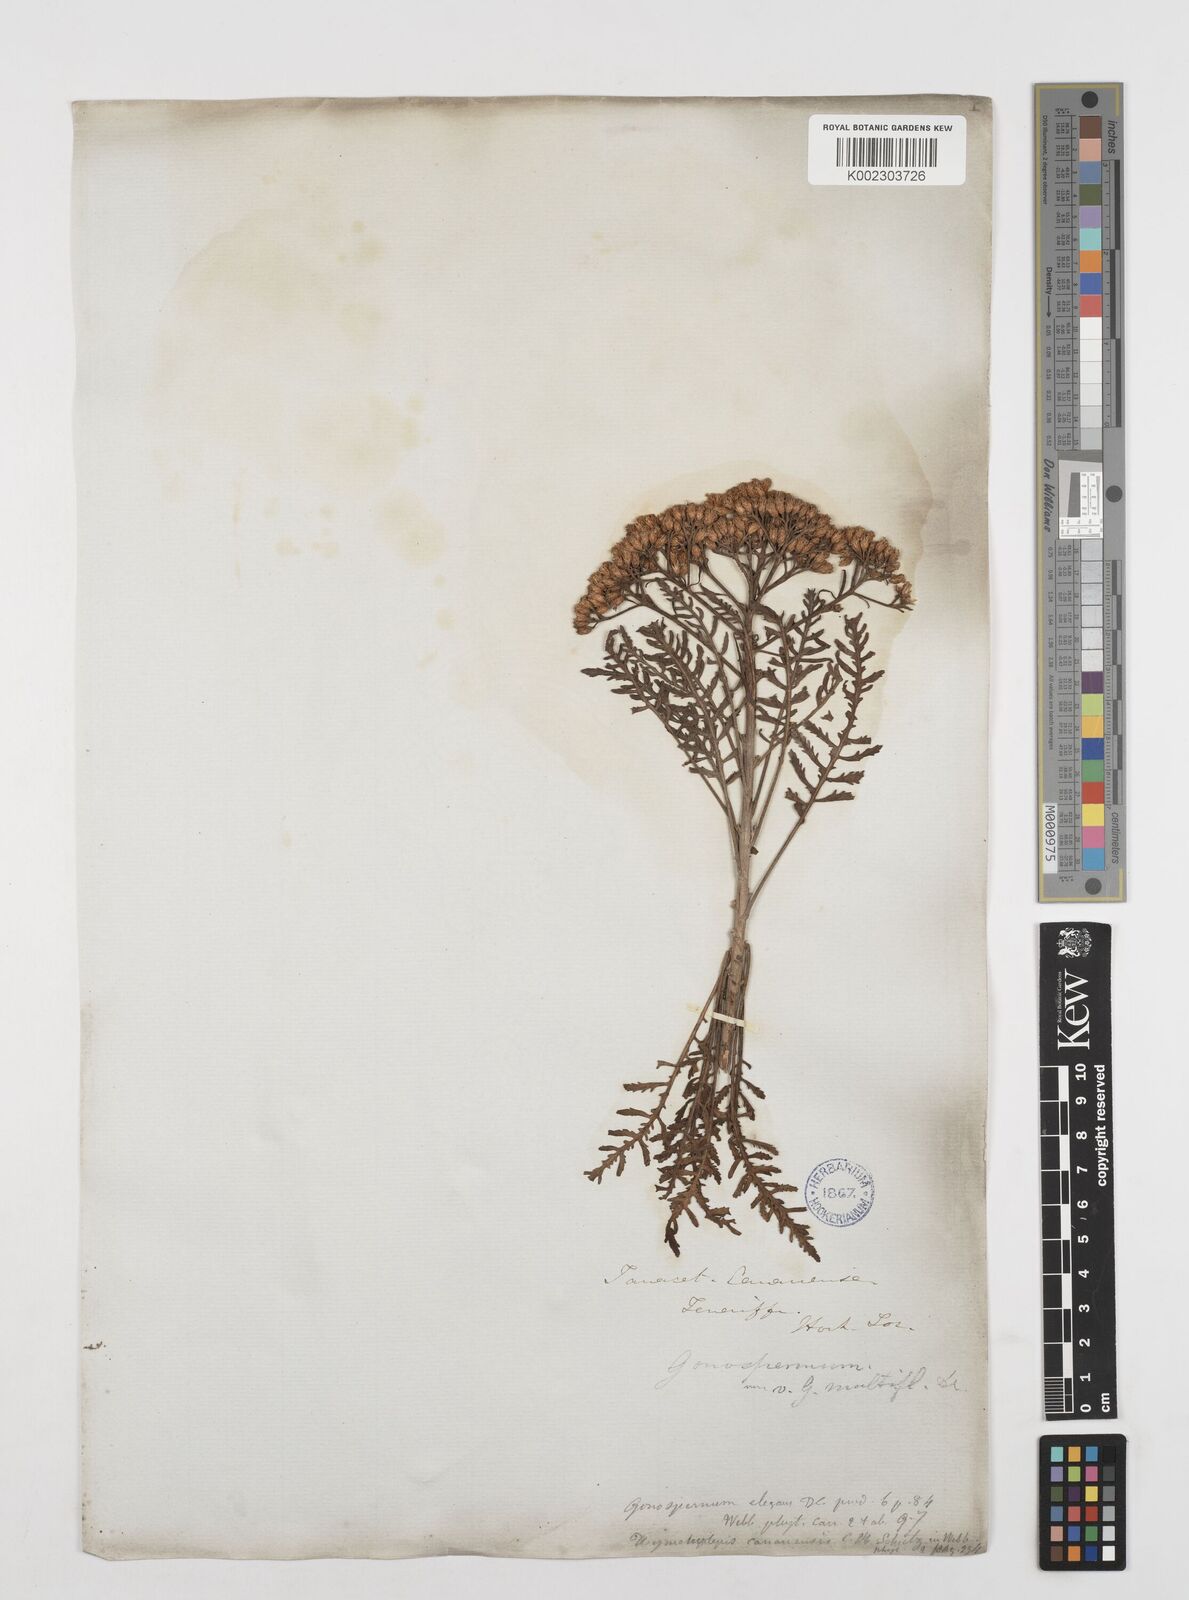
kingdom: Plantae
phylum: Tracheophyta
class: Magnoliopsida
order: Asterales
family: Asteraceae
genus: Gonospermum
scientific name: Gonospermum
